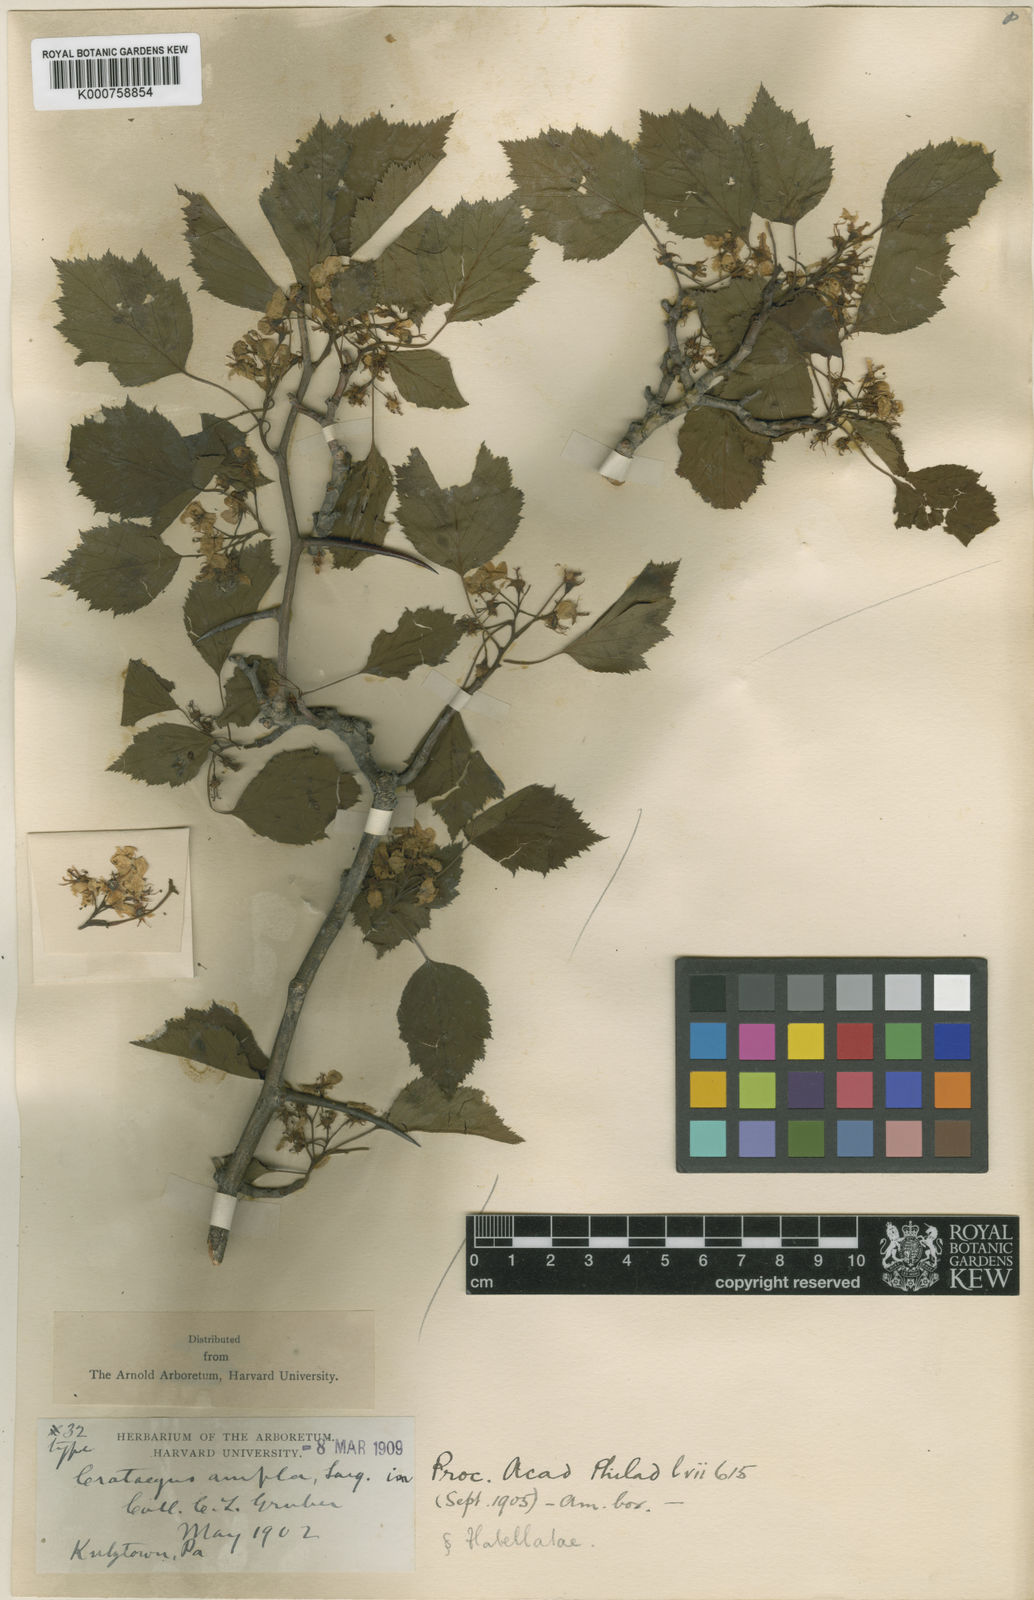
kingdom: Plantae
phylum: Tracheophyta
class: Magnoliopsida
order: Rosales
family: Rosaceae
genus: Crataegus
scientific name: Crataegus
